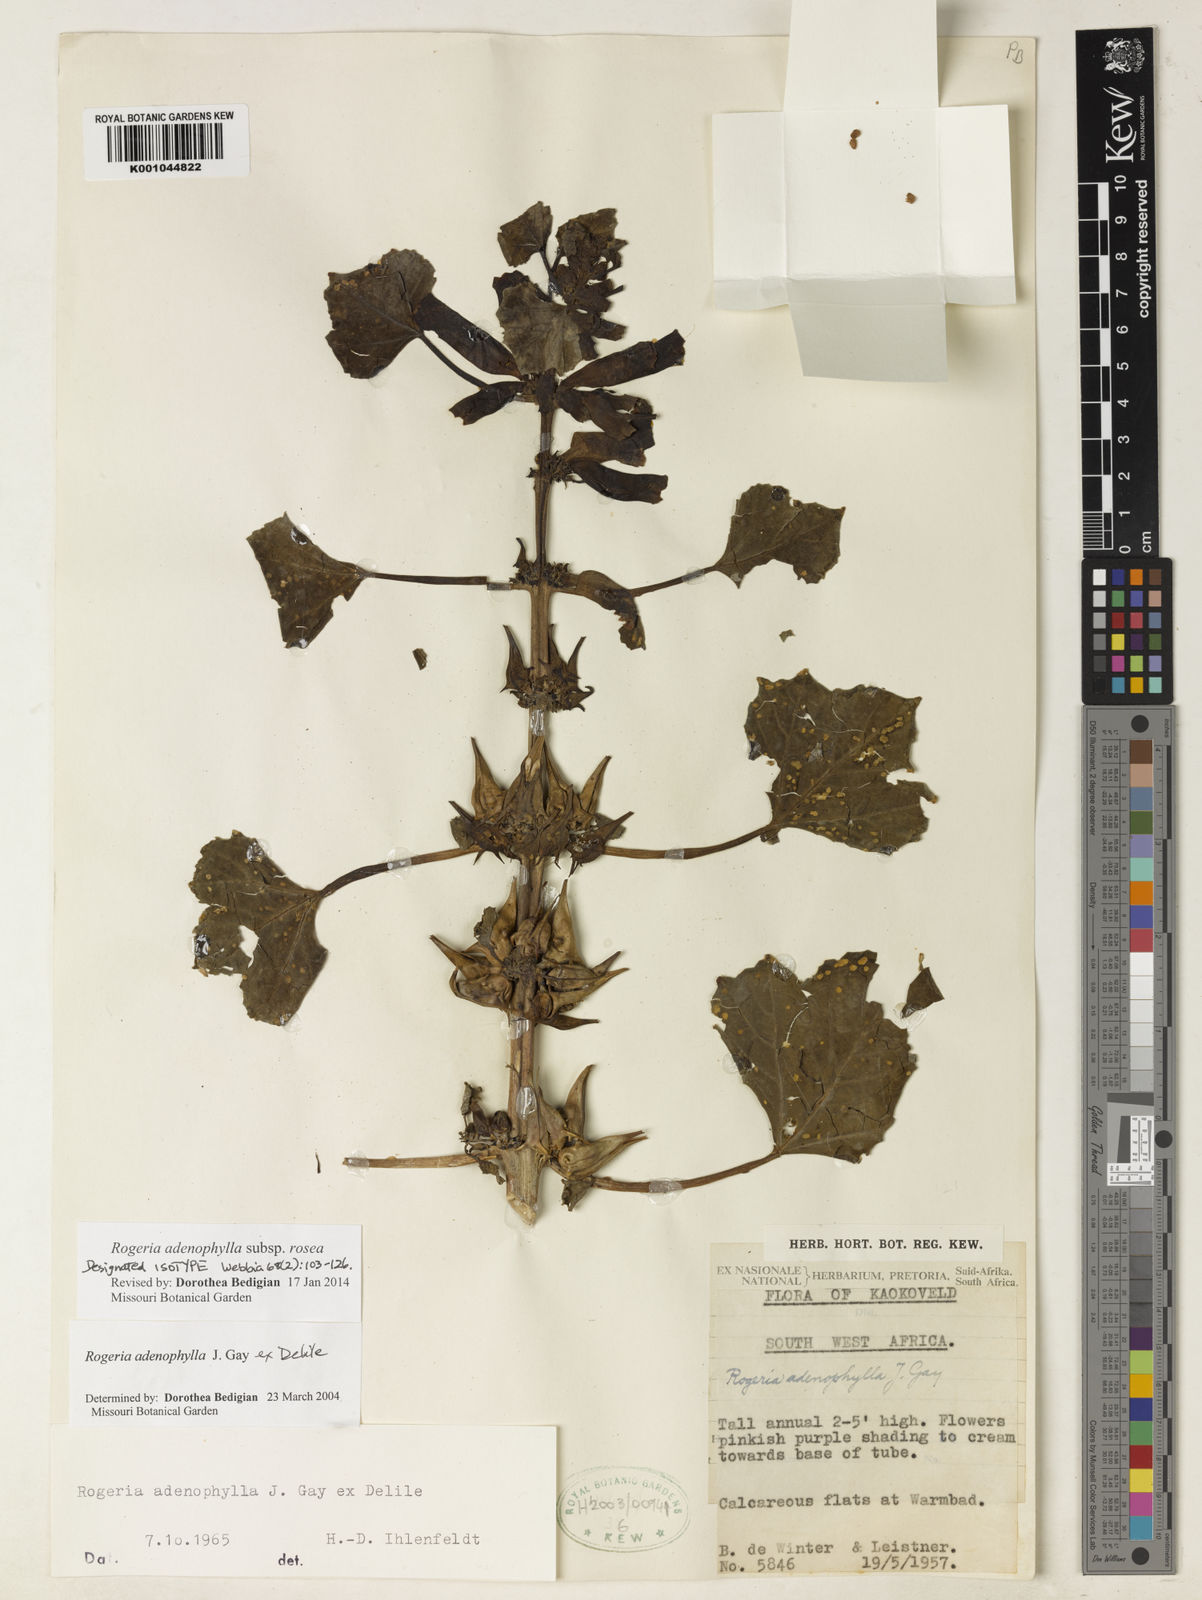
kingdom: Plantae
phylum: Tracheophyta
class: Magnoliopsida
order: Lamiales
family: Pedaliaceae
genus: Rogeria
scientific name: Rogeria adenophylla
